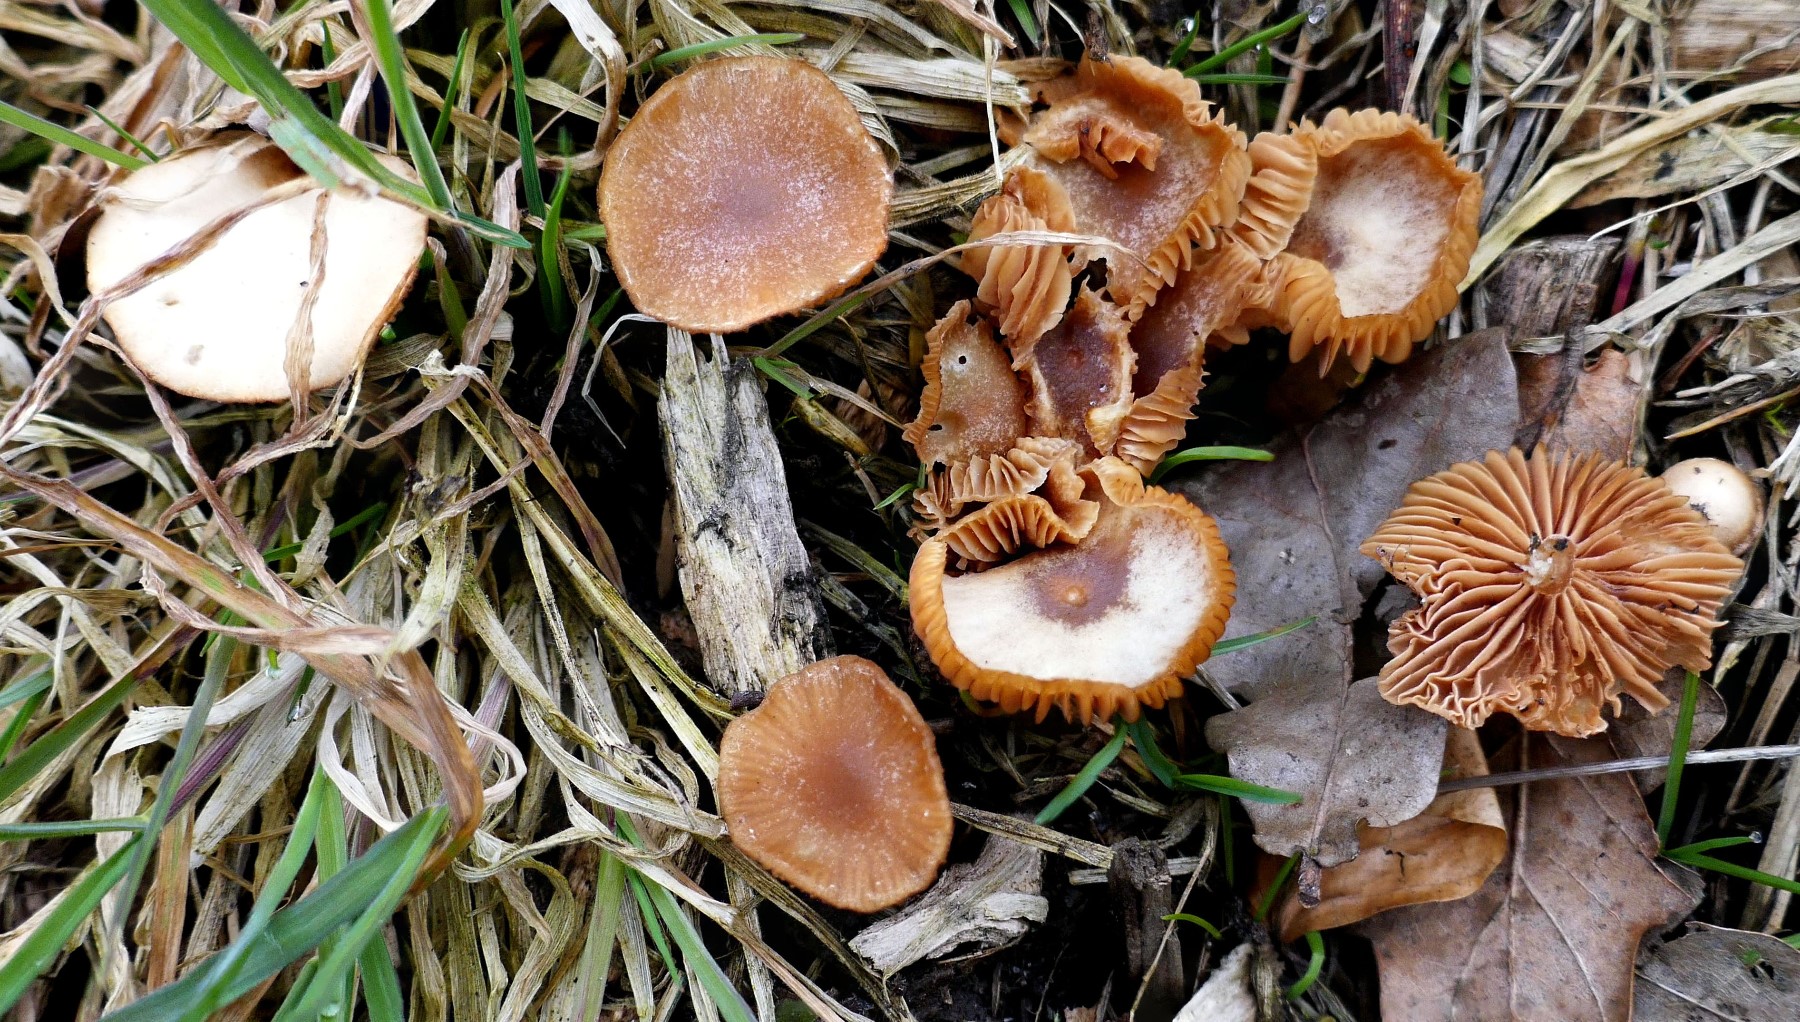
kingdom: Fungi
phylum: Basidiomycota
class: Agaricomycetes
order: Agaricales
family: Tubariaceae
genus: Tubaria
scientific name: Tubaria furfuracea
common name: kliddet fnughat
